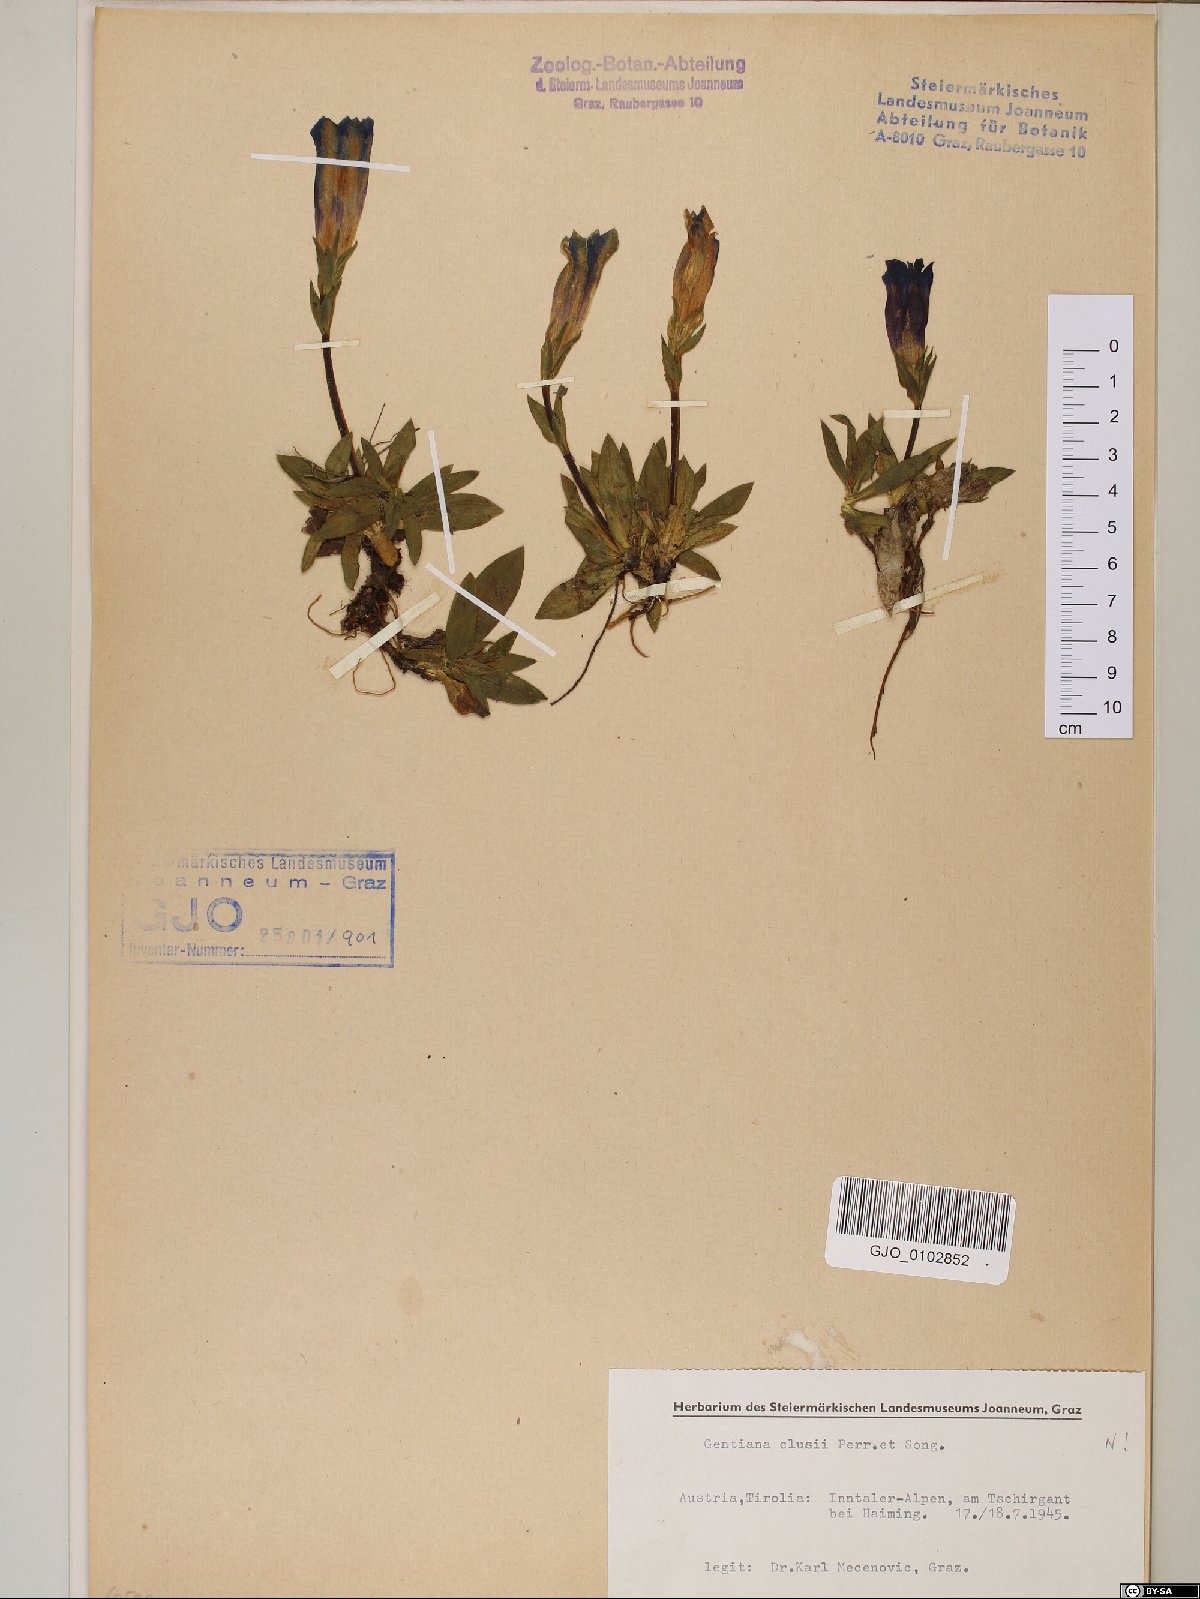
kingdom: Plantae
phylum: Tracheophyta
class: Magnoliopsida
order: Gentianales
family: Gentianaceae
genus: Gentiana
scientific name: Gentiana clusii
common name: Trumpet gentian
